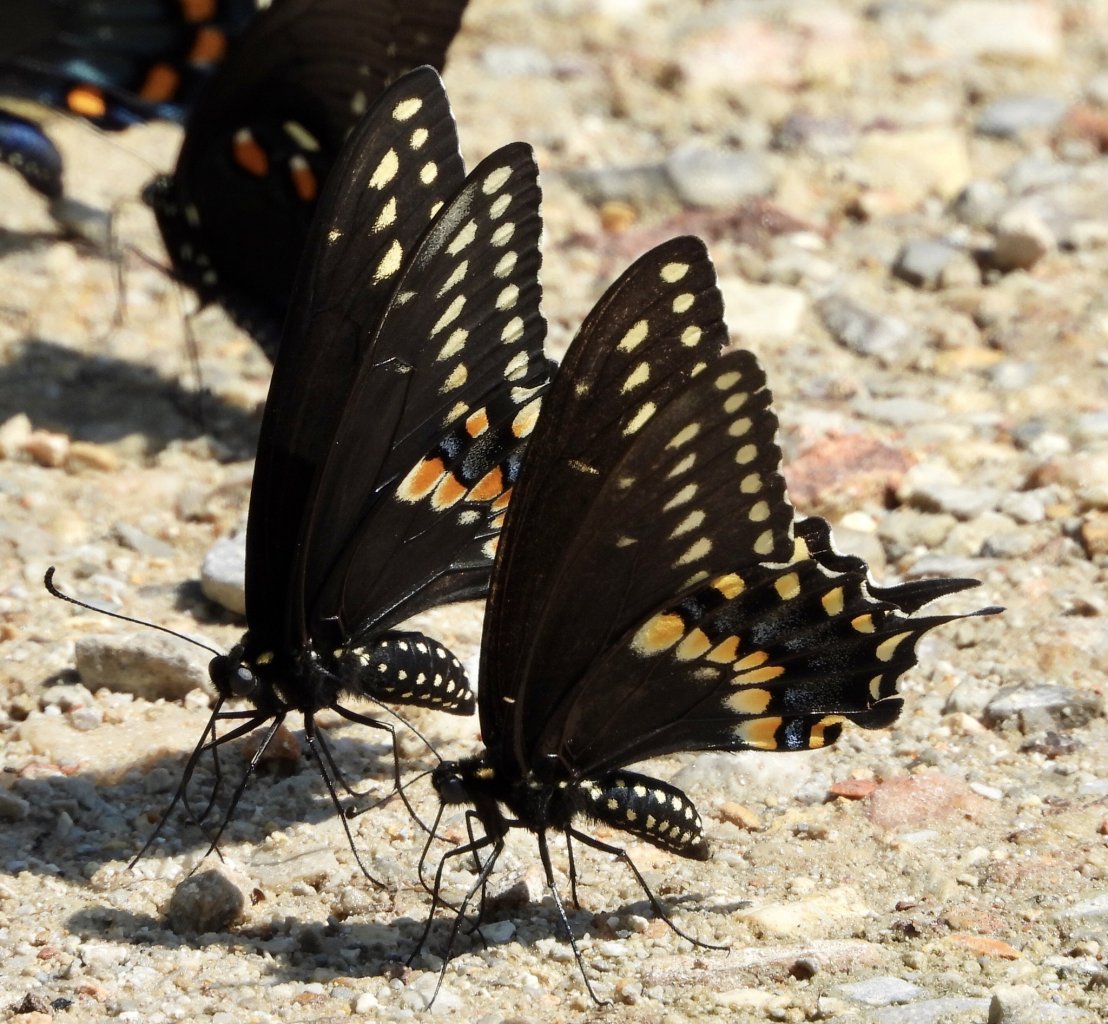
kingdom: Animalia
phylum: Arthropoda
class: Insecta
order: Lepidoptera
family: Papilionidae
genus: Papilio
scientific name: Papilio polyxenes
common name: Black Swallowtail
